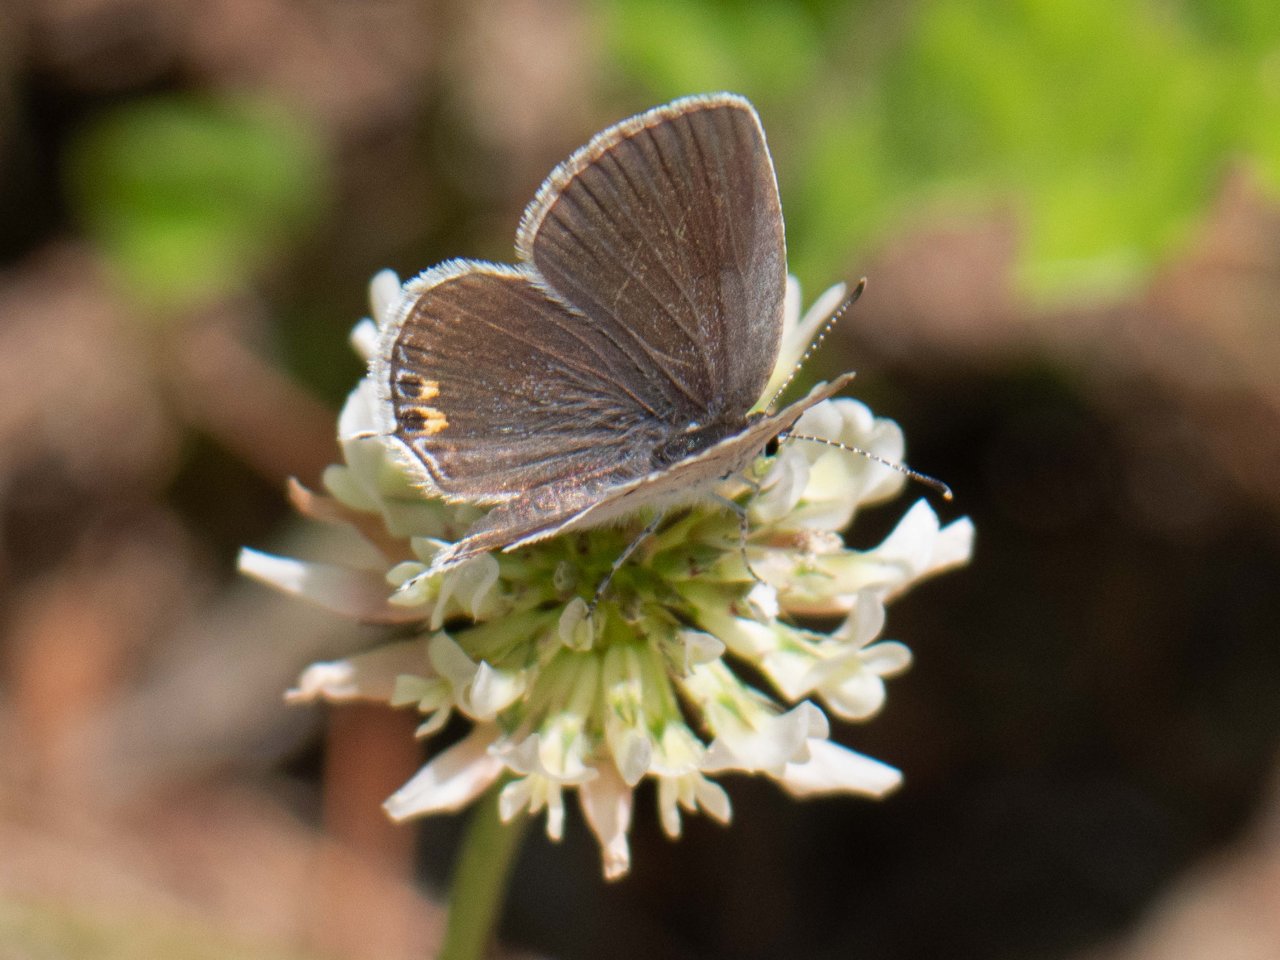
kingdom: Animalia
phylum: Arthropoda
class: Insecta
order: Lepidoptera
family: Lycaenidae
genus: Elkalyce
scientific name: Elkalyce comyntas
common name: Eastern Tailed-Blue
